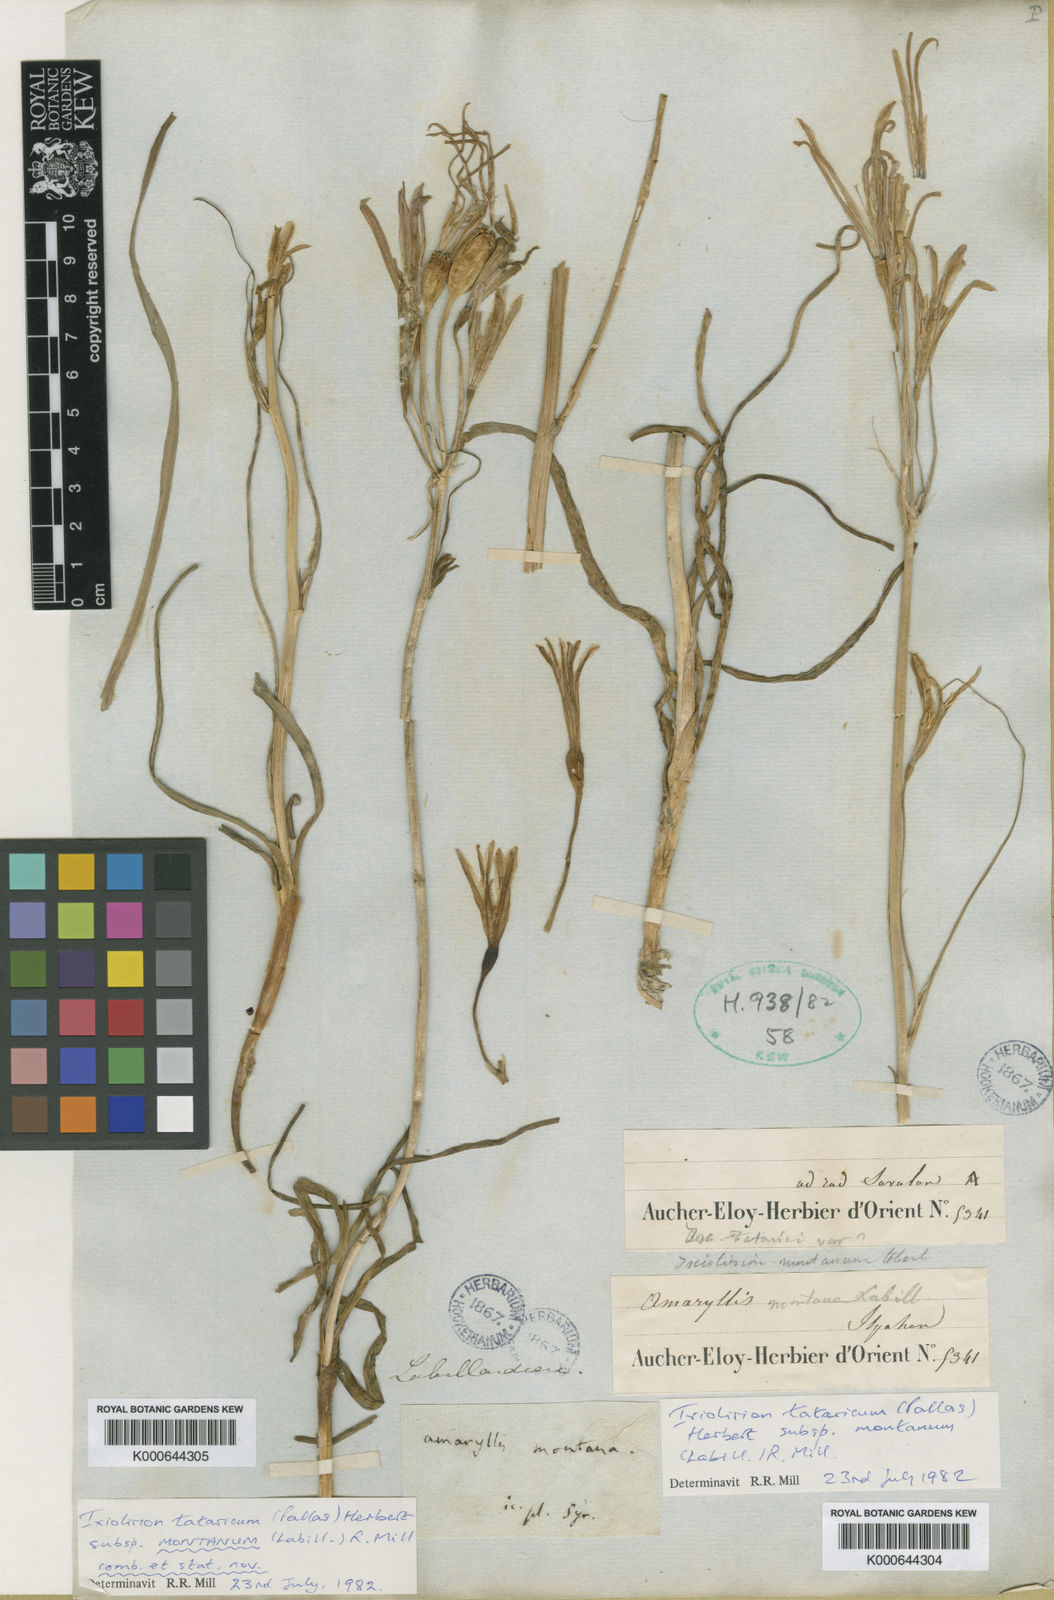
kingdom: Plantae
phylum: Tracheophyta
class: Liliopsida
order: Asparagales
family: Ixioliriaceae
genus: Ixiolirion
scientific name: Ixiolirion tataricum
